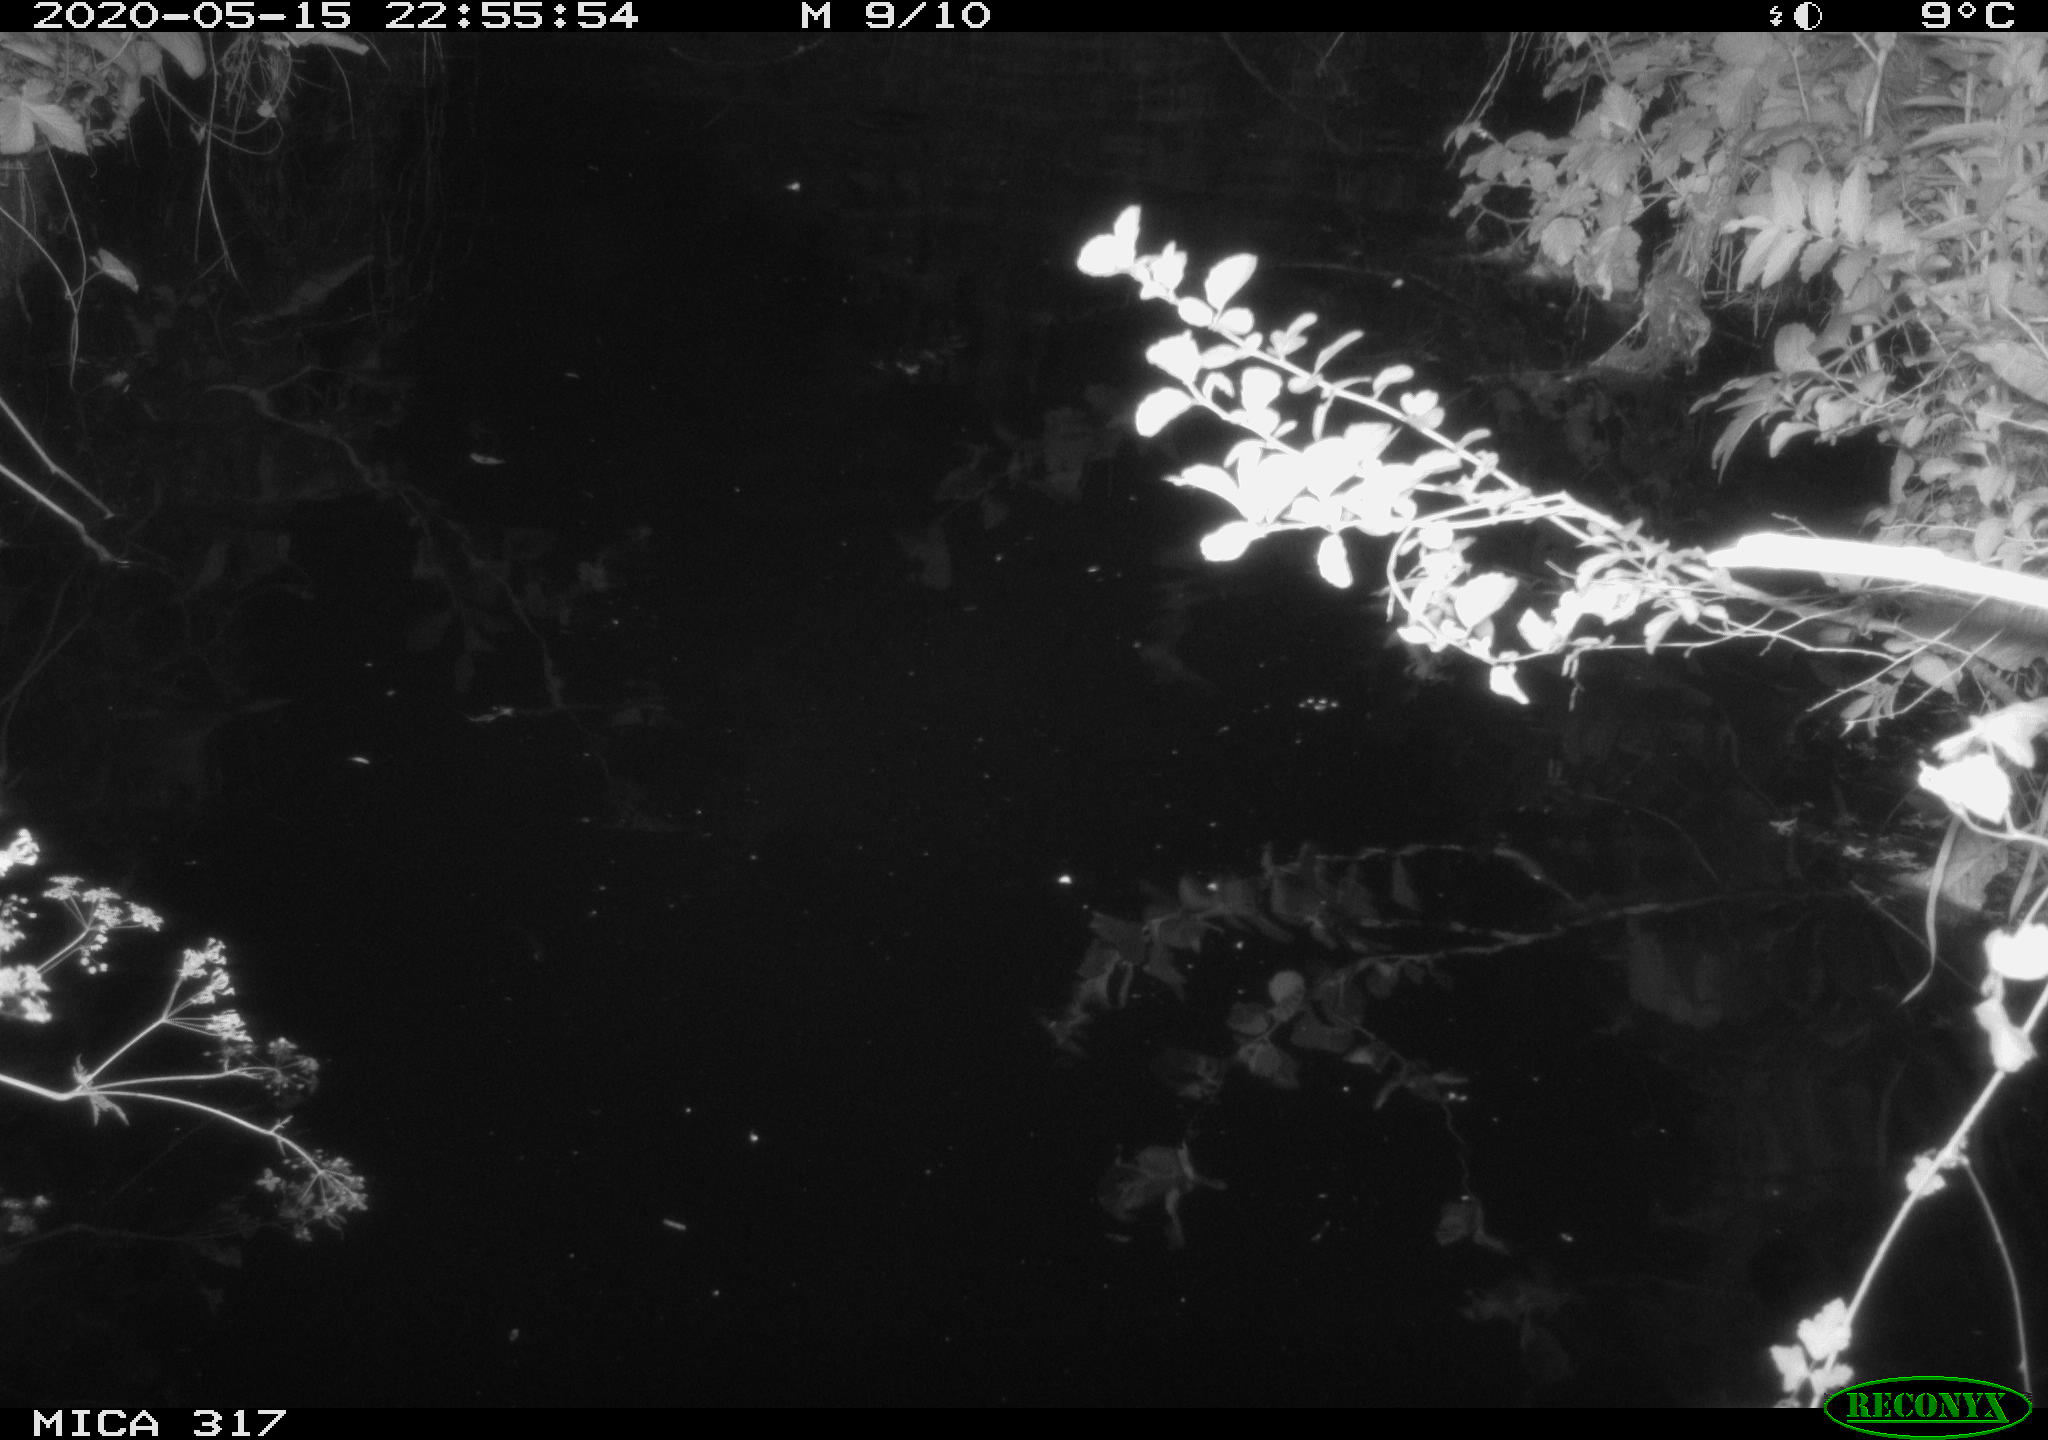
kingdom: Animalia
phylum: Chordata
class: Aves
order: Anseriformes
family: Anatidae
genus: Anas
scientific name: Anas platyrhynchos
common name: Mallard
